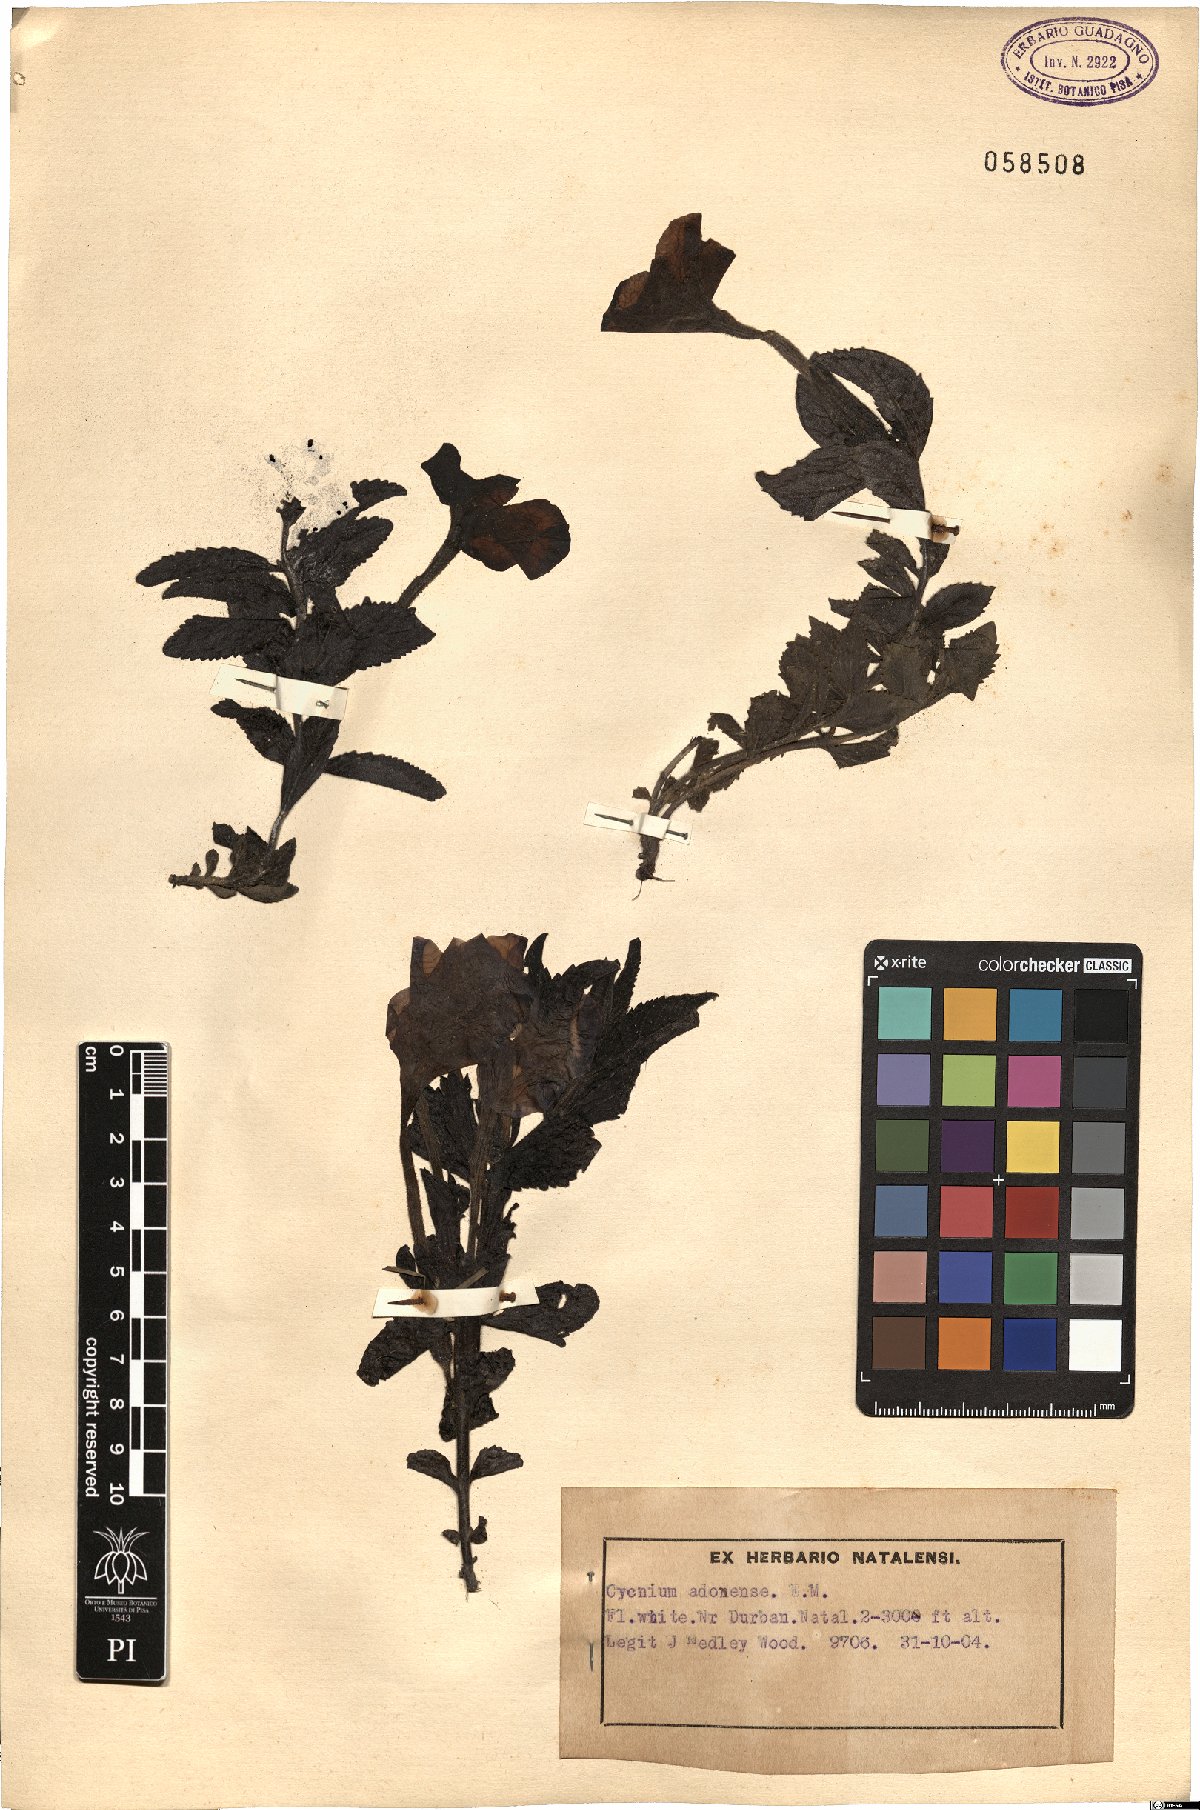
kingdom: Plantae
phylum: Tracheophyta
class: Magnoliopsida
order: Lamiales
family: Orobanchaceae
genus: Cycnium
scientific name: Cycnium adonense
